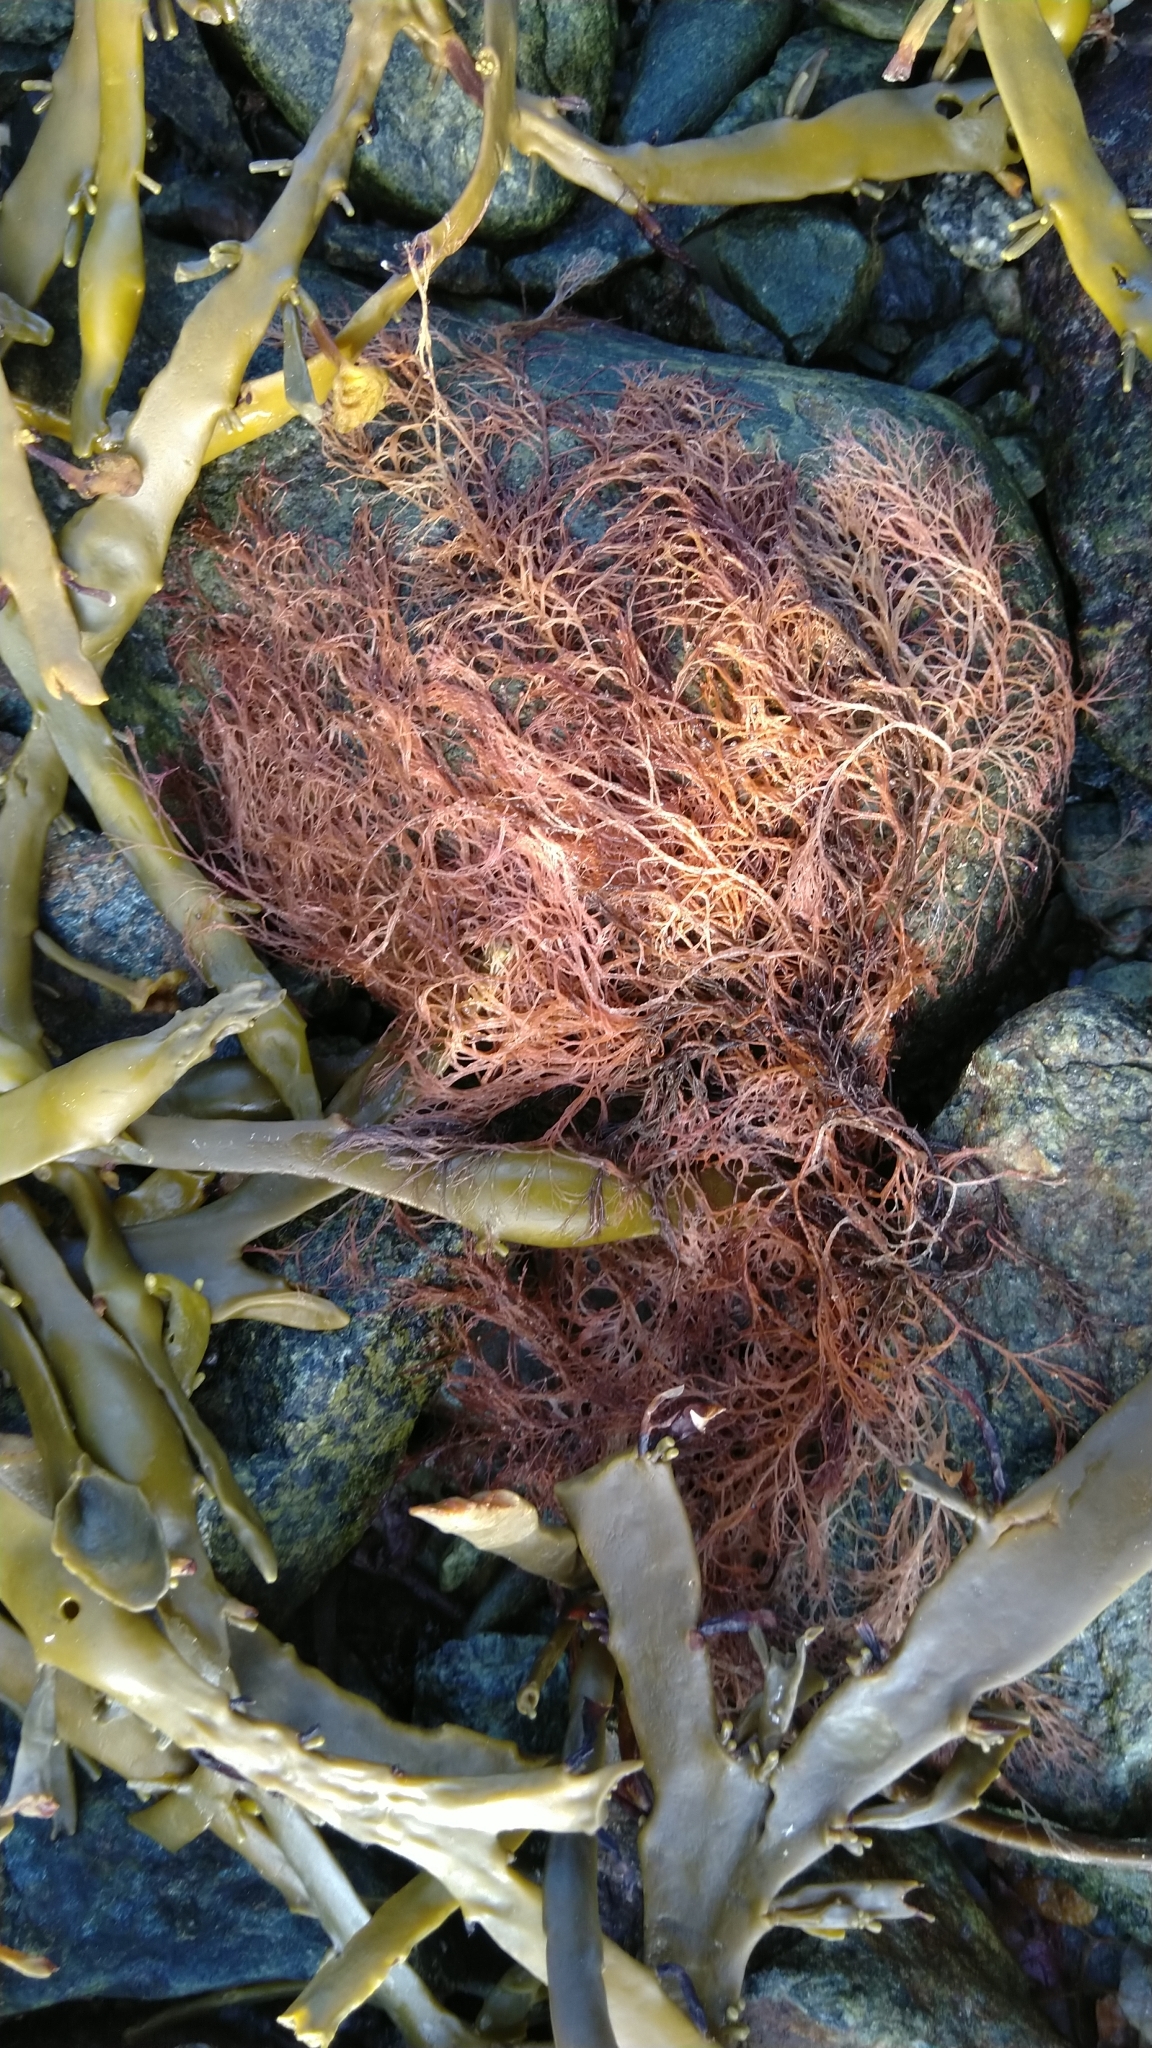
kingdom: Plantae
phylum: Rhodophyta
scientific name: Rhodophyta
